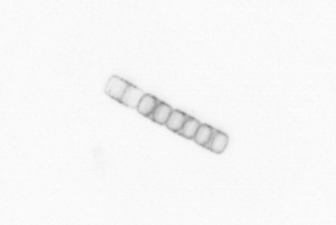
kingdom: Chromista
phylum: Ochrophyta
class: Bacillariophyceae
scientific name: Bacillariophyceae
